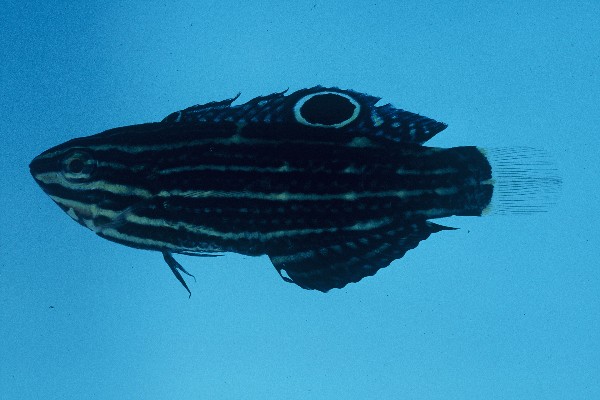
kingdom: Animalia
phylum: Chordata
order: Perciformes
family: Labridae
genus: Halichoeres
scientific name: Halichoeres marginatus
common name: Dusky wrasse
